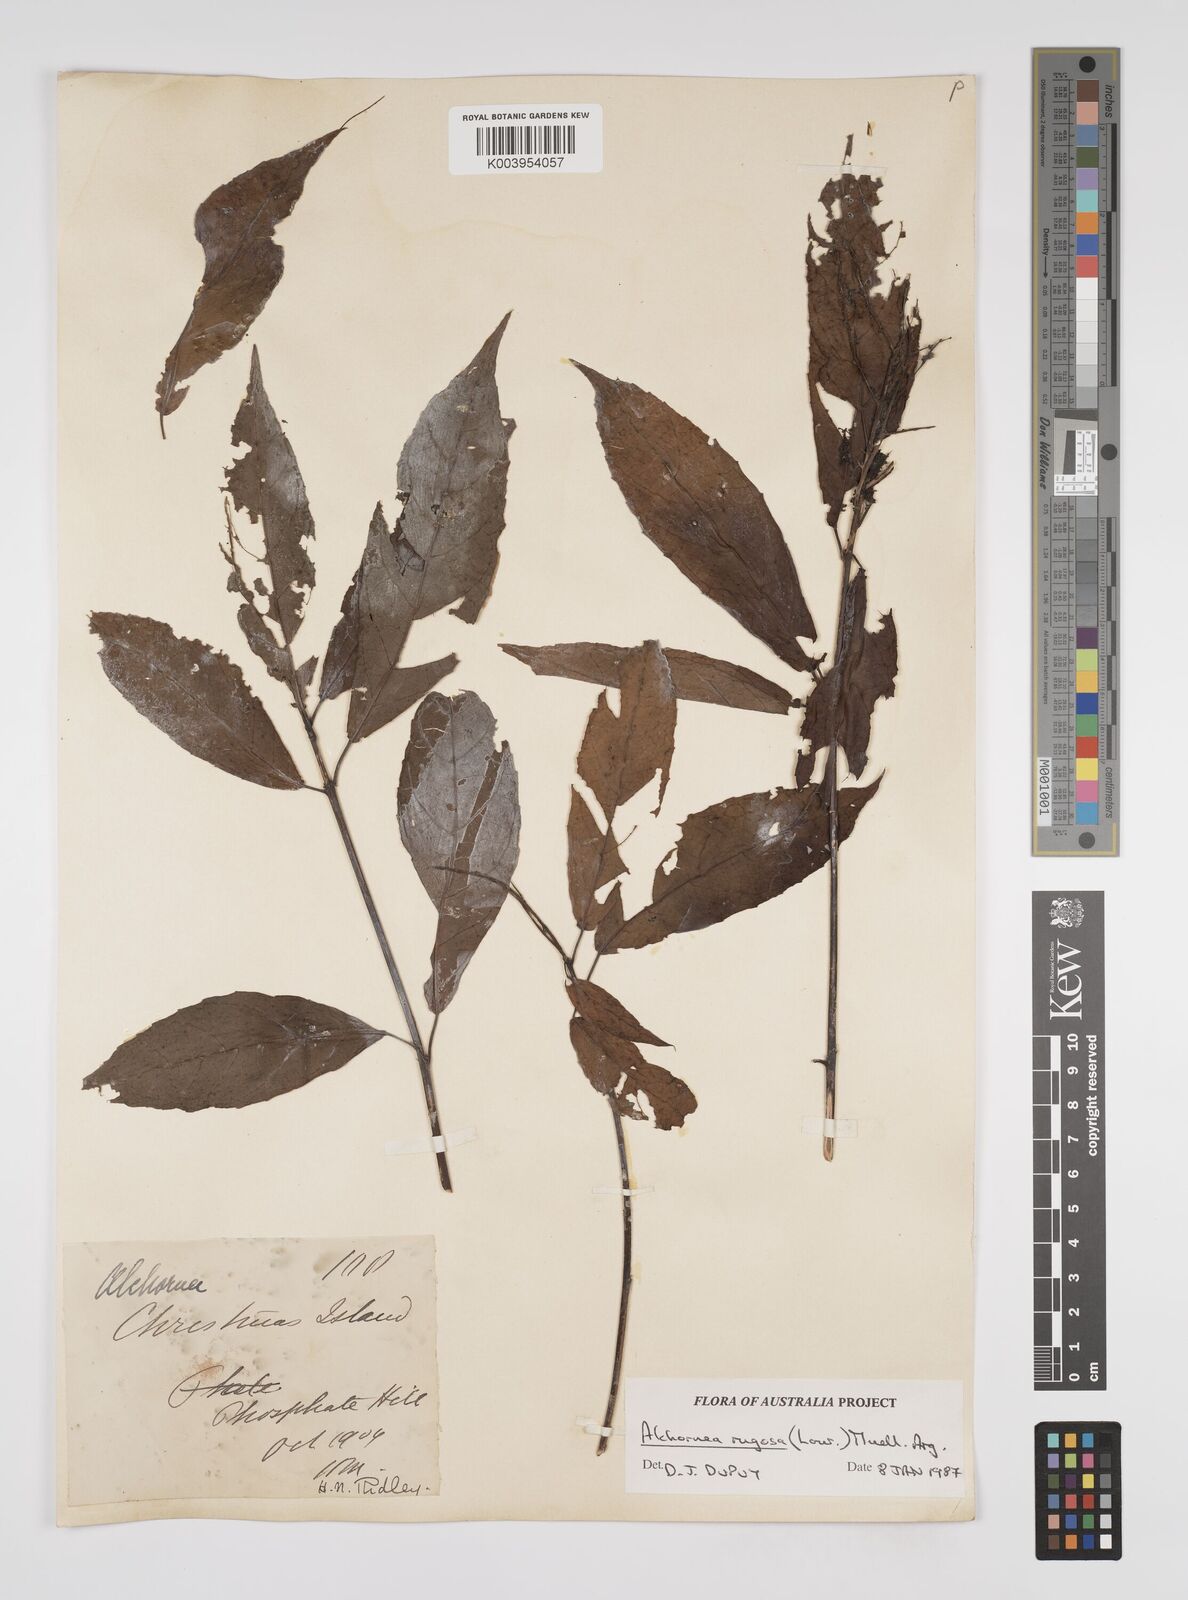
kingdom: Plantae
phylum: Tracheophyta
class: Magnoliopsida
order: Malpighiales
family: Euphorbiaceae
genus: Alchornea
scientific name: Alchornea rugosa
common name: Alchorntree
